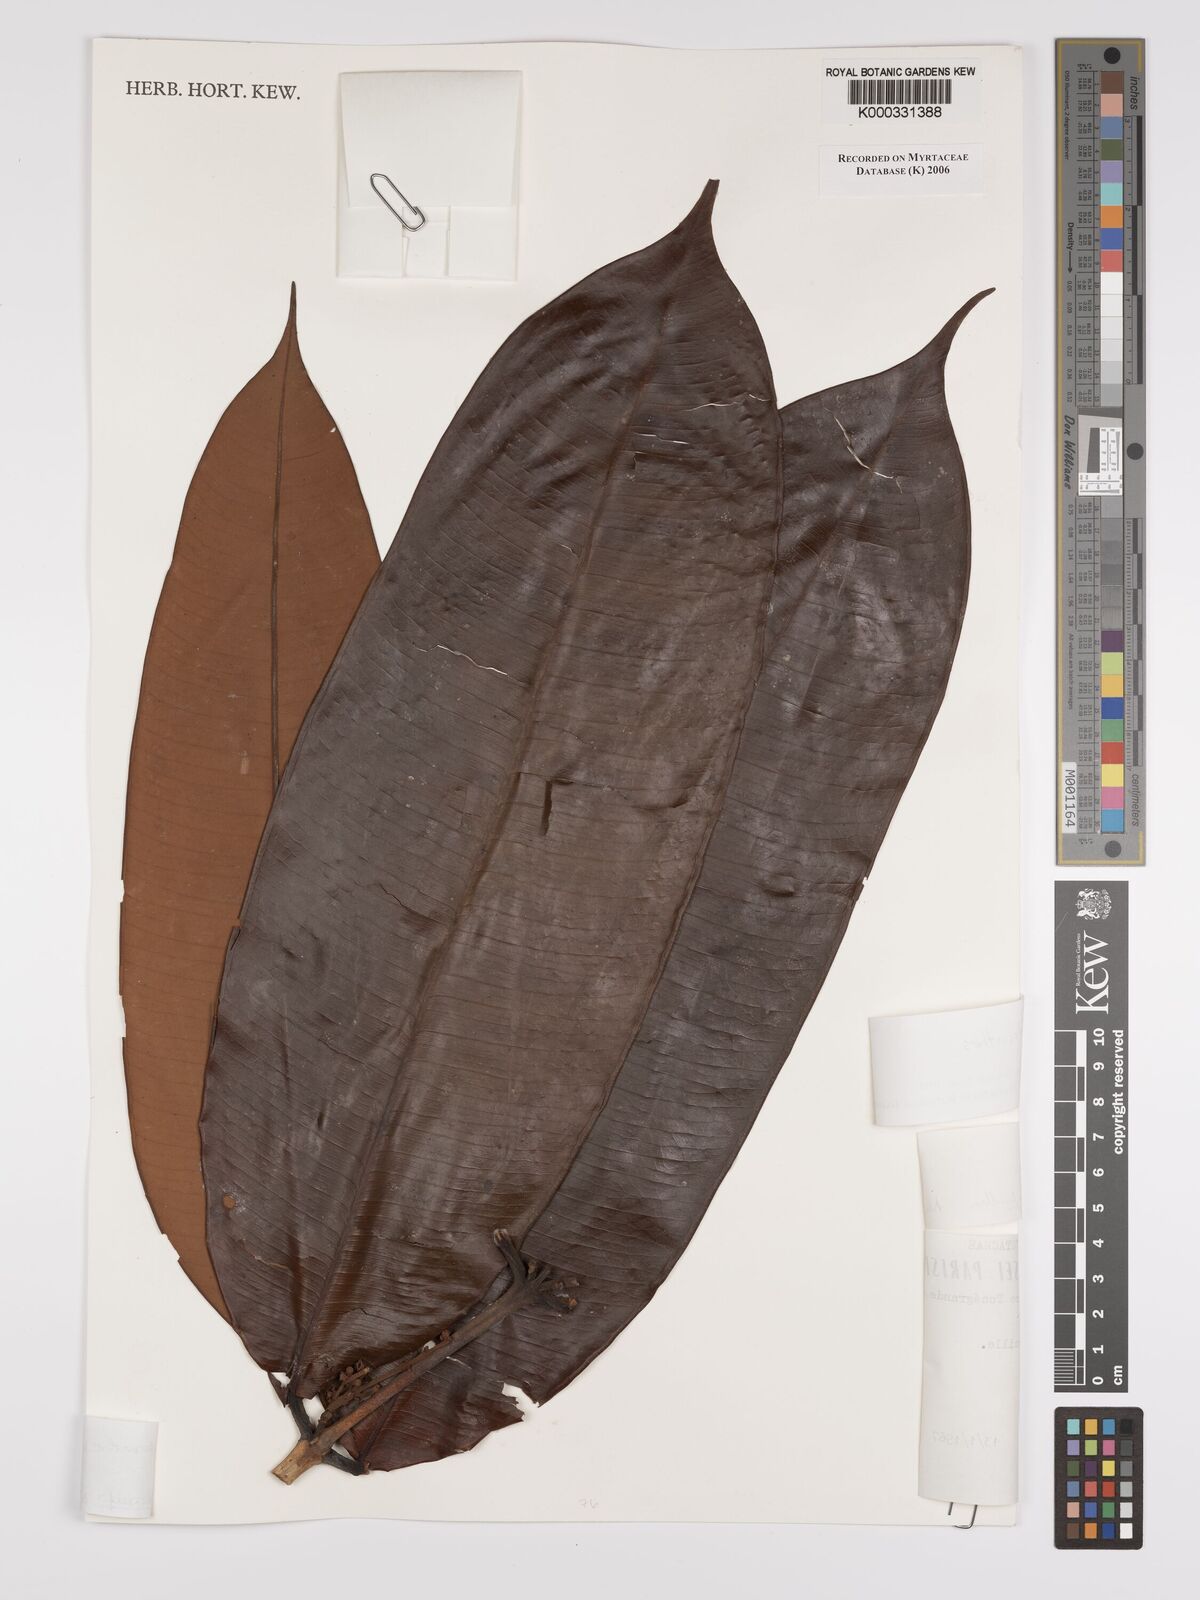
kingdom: Plantae
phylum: Tracheophyta
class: Magnoliopsida
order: Myrtales
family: Myrtaceae
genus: Calyptranthes
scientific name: Calyptranthes
